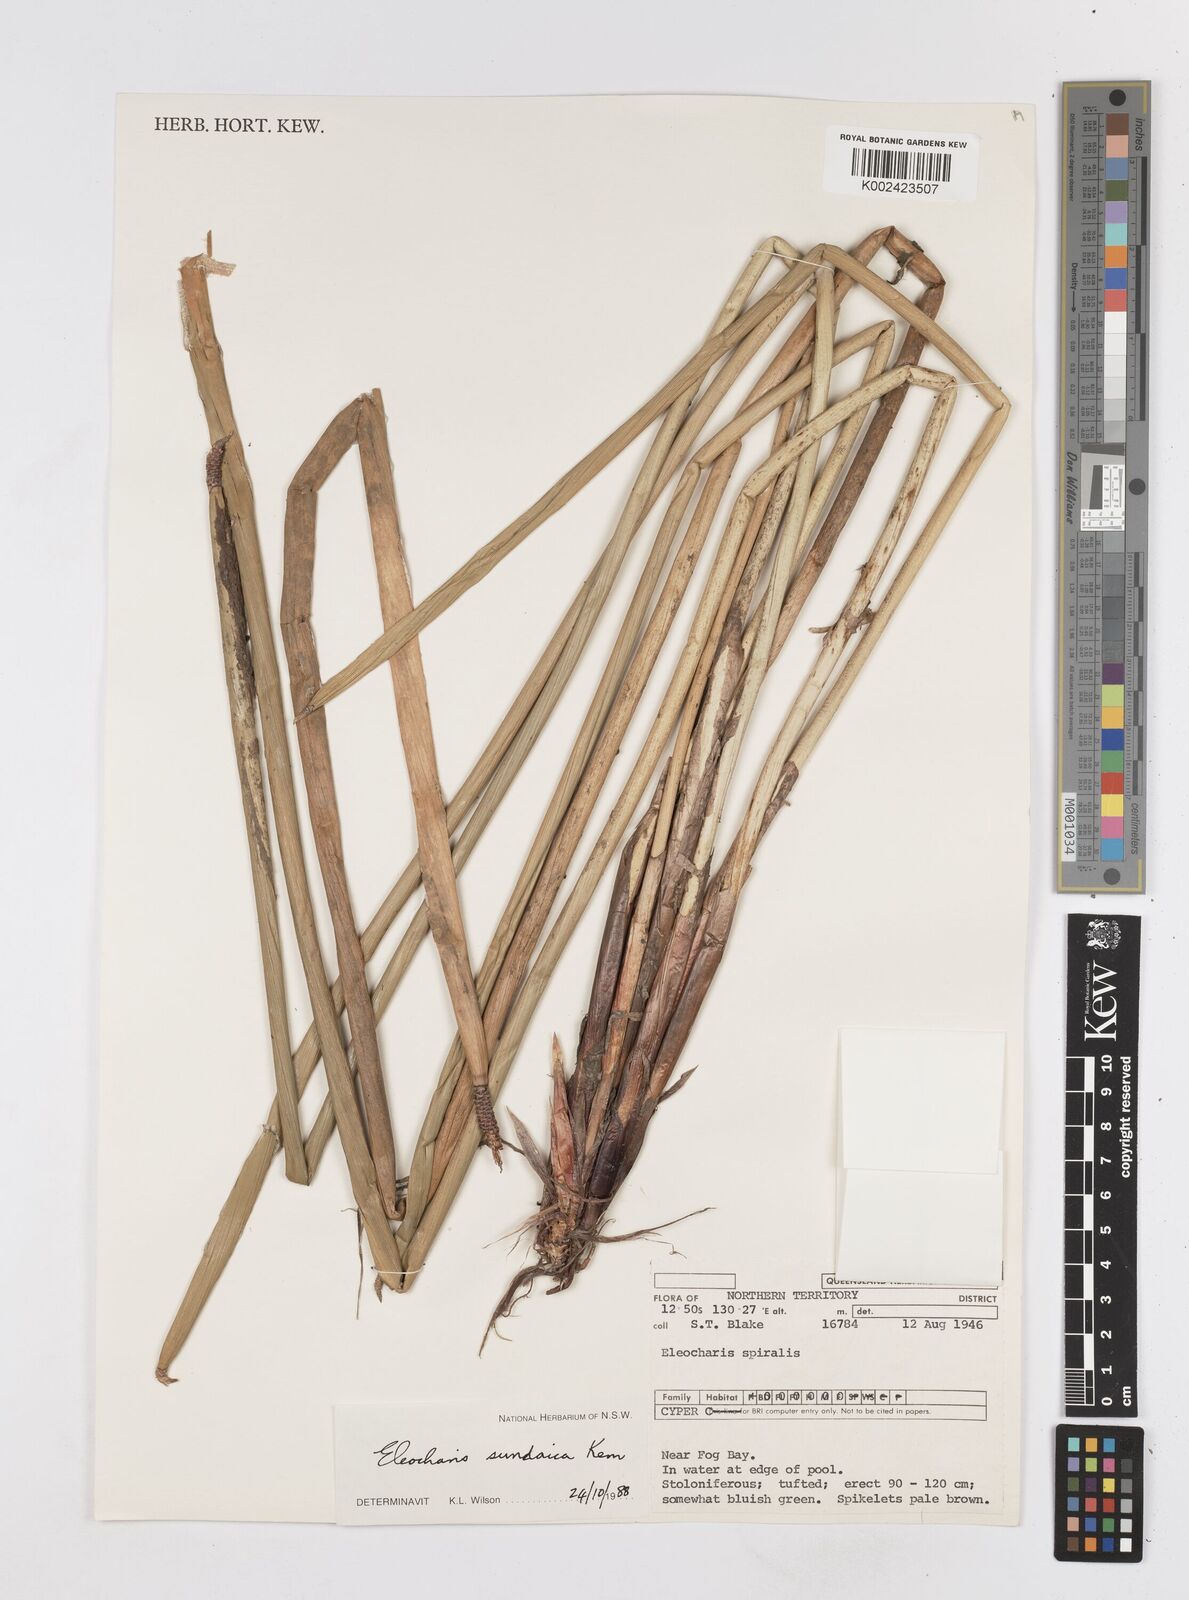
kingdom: Plantae
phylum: Tracheophyta
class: Liliopsida
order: Poales
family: Cyperaceae
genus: Eleocharis
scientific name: Eleocharis sundaica
